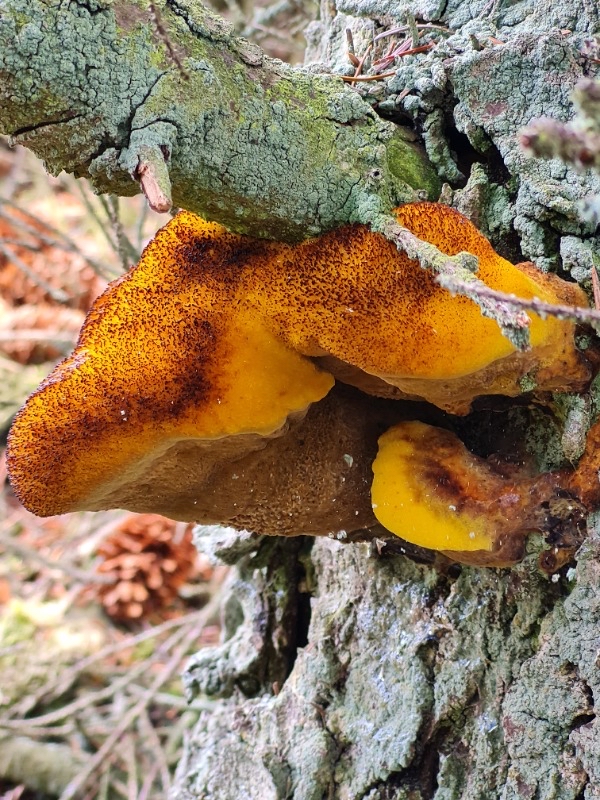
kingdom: Fungi
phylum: Basidiomycota
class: Agaricomycetes
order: Polyporales
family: Laetiporaceae
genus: Phaeolus
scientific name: Phaeolus schweinitzii
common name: brunporesvamp
